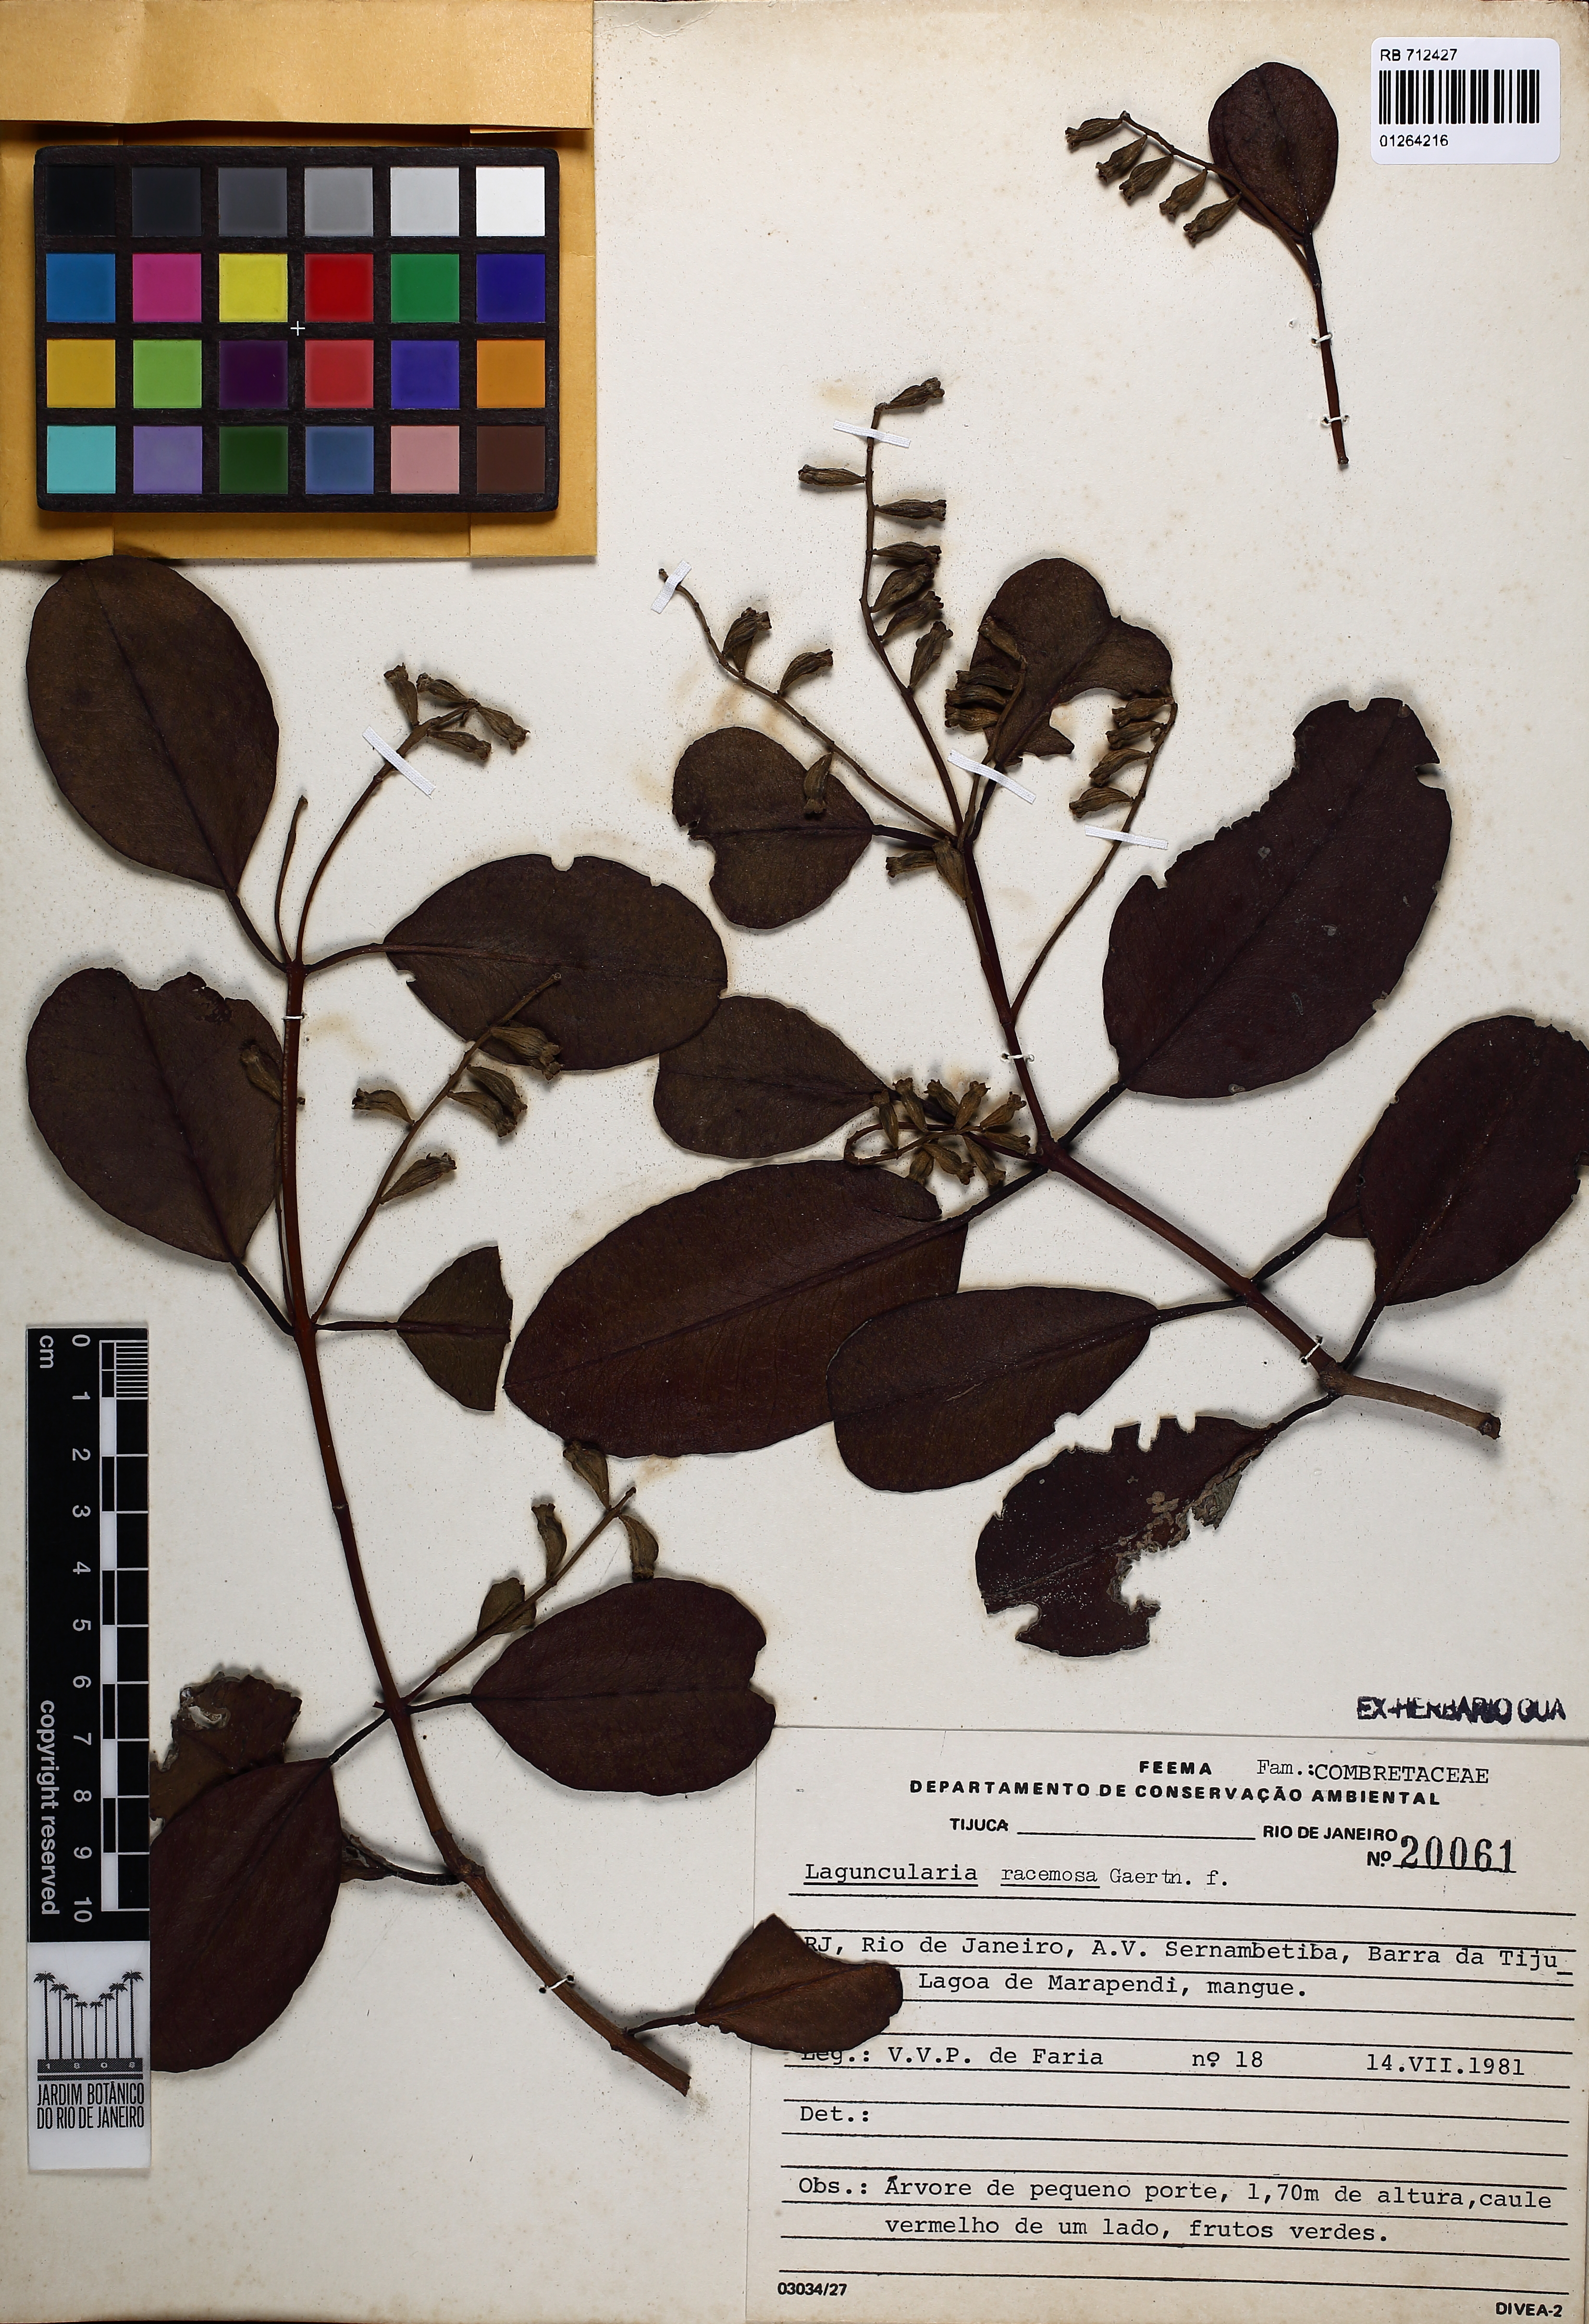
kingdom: Plantae
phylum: Tracheophyta
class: Magnoliopsida
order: Myrtales
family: Combretaceae
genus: Laguncularia
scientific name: Laguncularia racemosa
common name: White mangrove
